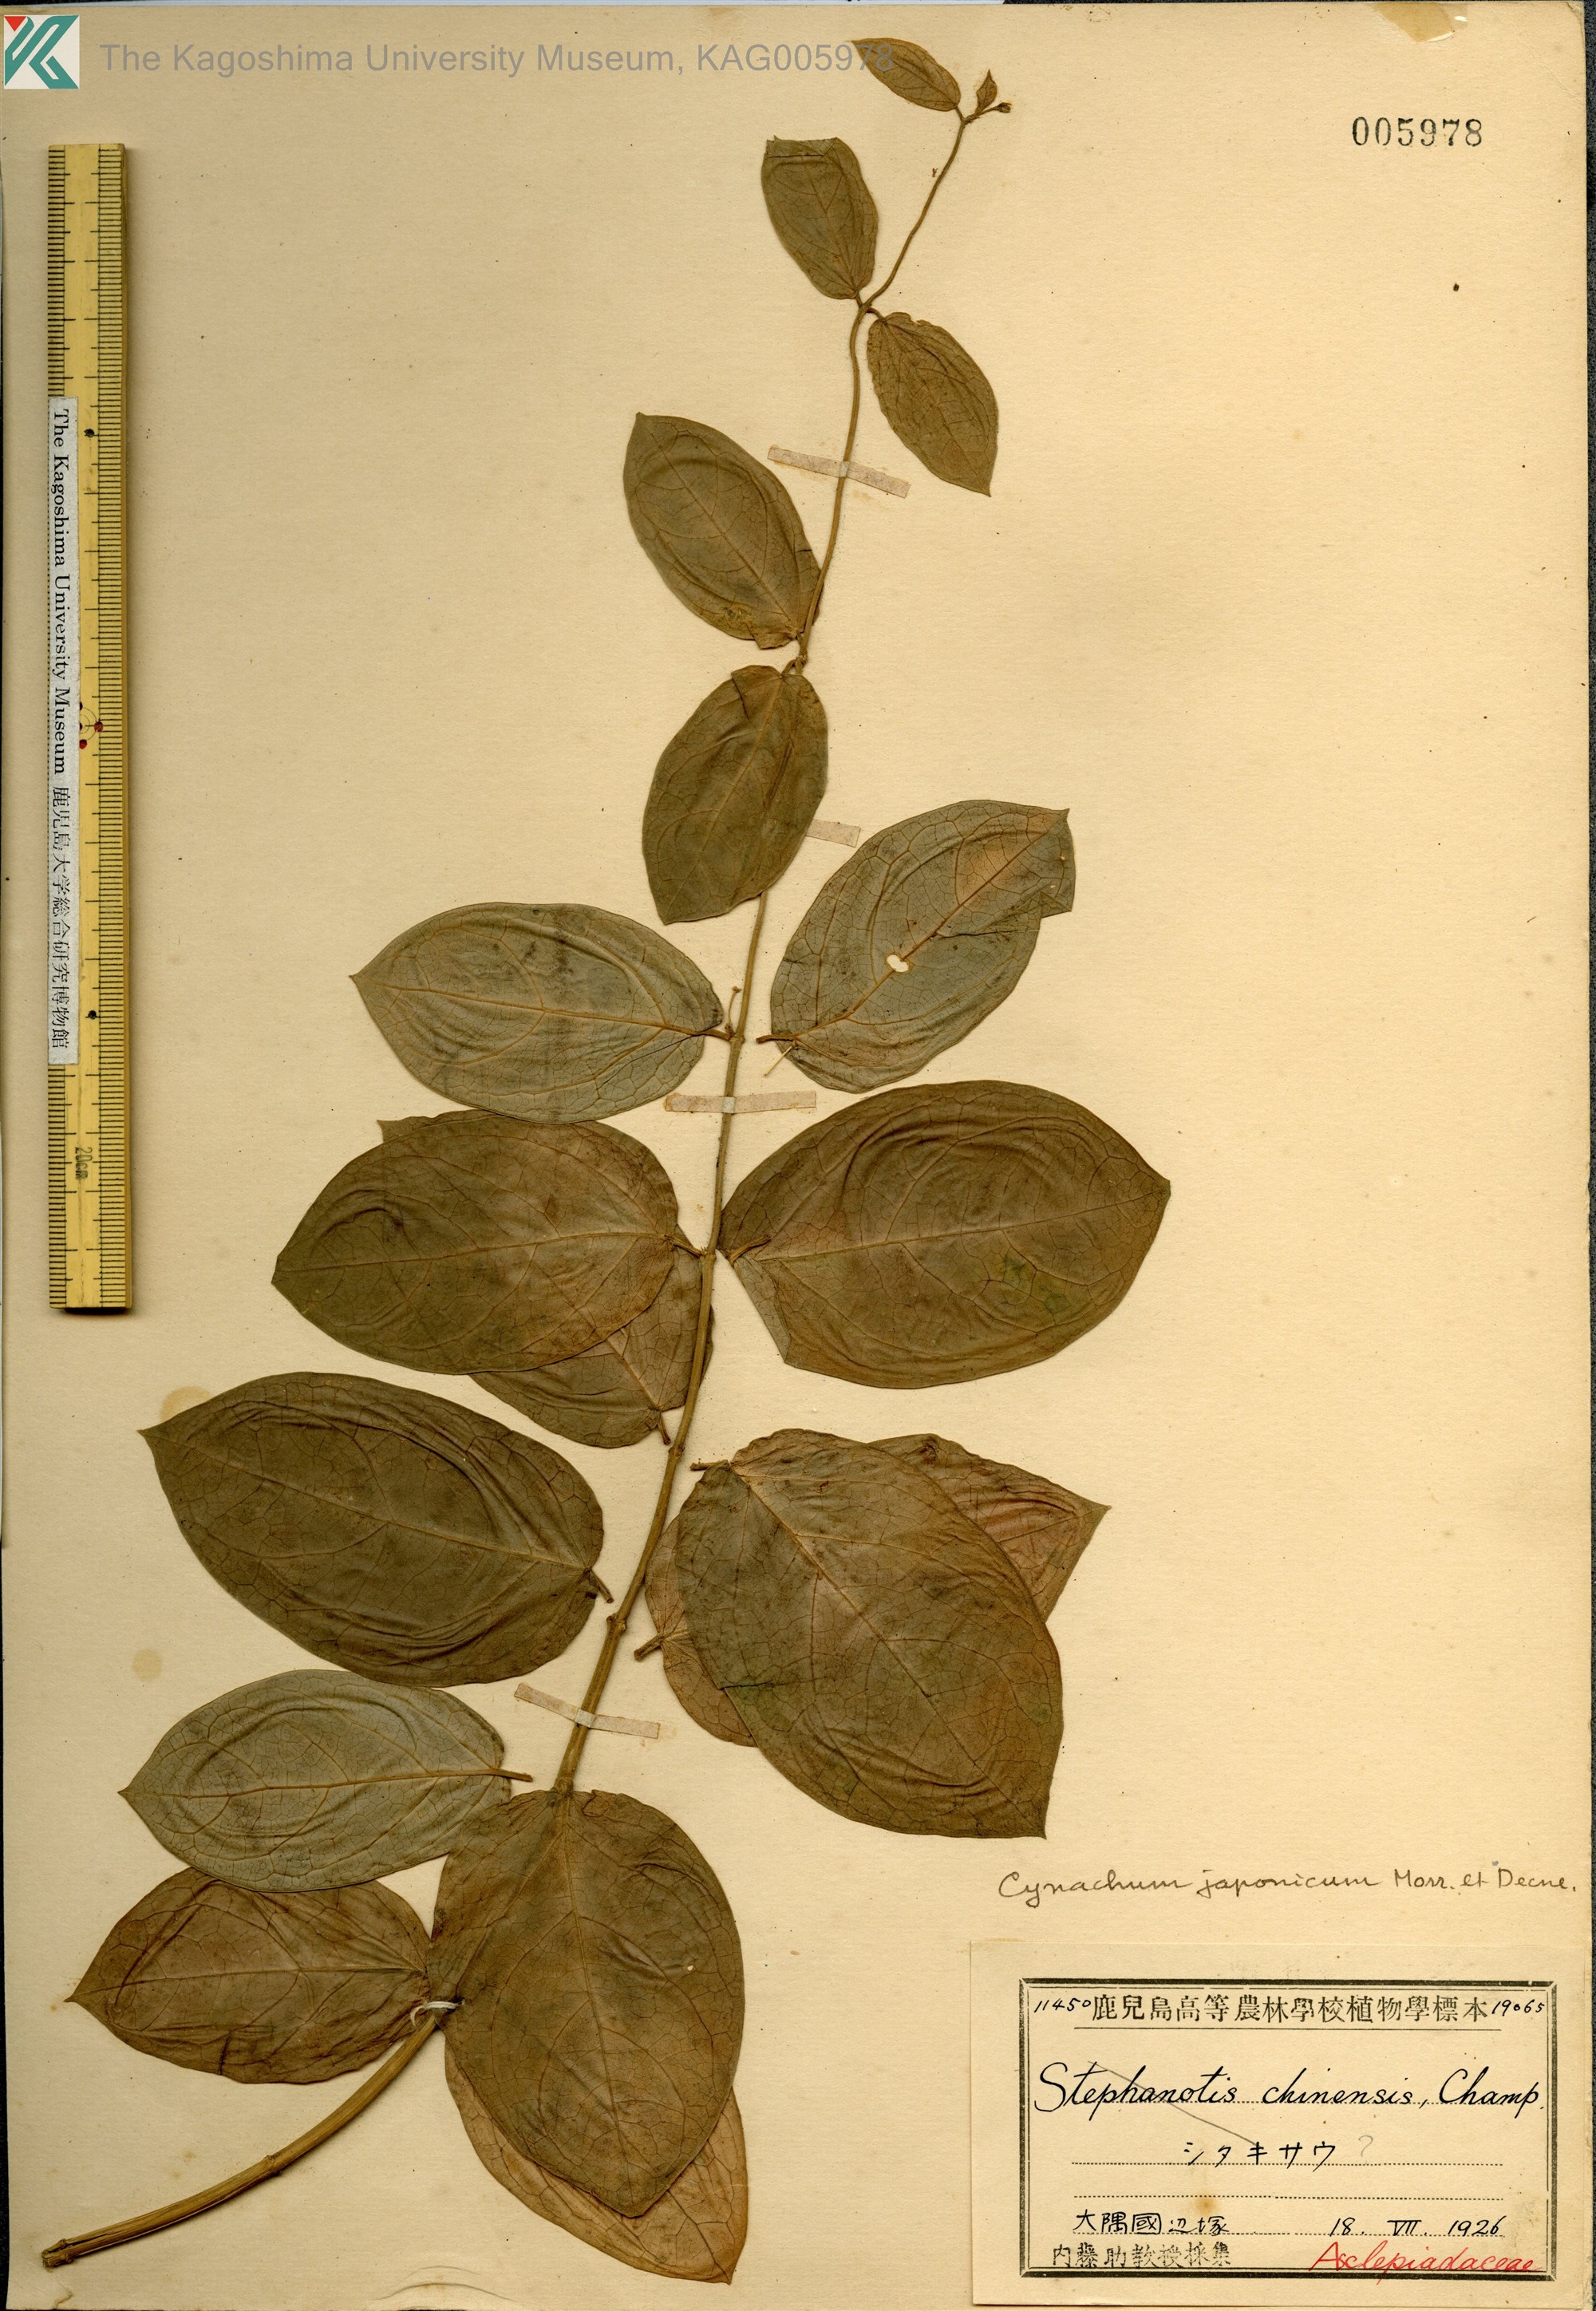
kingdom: Plantae
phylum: Tracheophyta
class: Magnoliopsida
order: Gentianales
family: Apocynaceae
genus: Vincetoxicum
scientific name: Vincetoxicum japonicum
